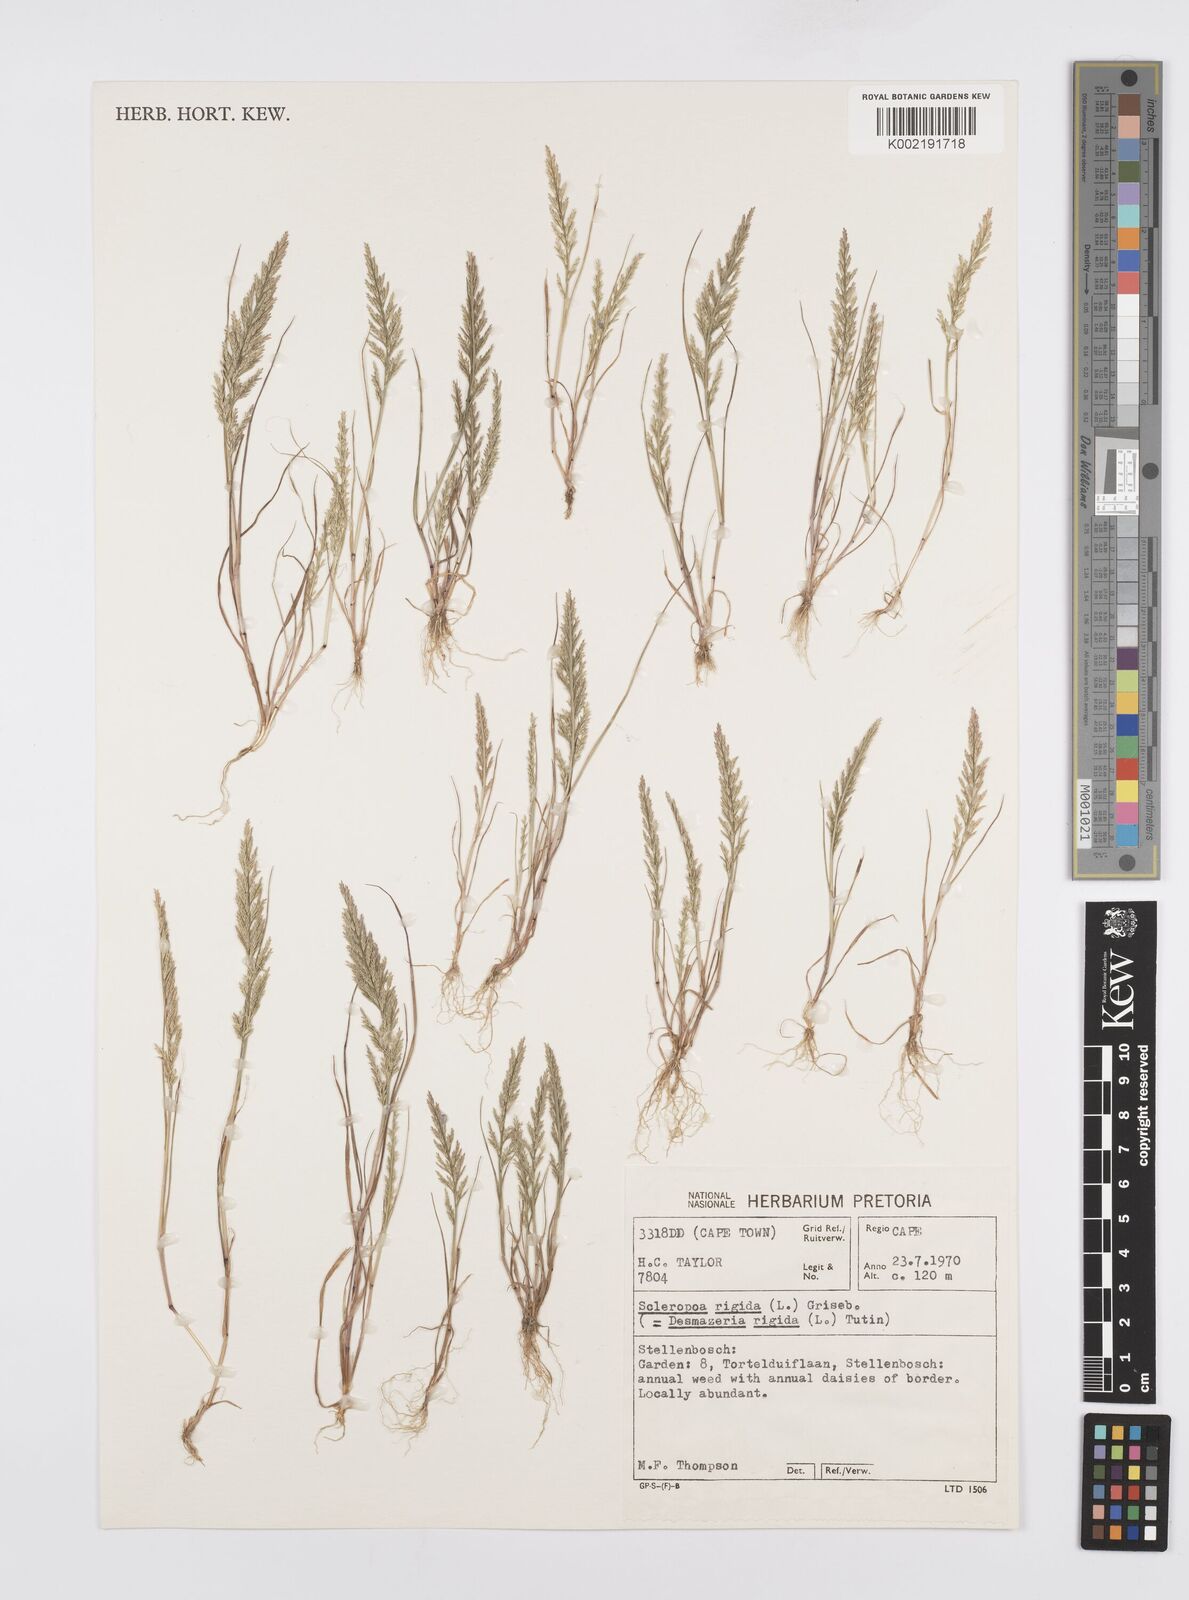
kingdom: Plantae
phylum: Tracheophyta
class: Liliopsida
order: Poales
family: Poaceae
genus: Catapodium
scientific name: Catapodium rigidum
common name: Fern-grass
